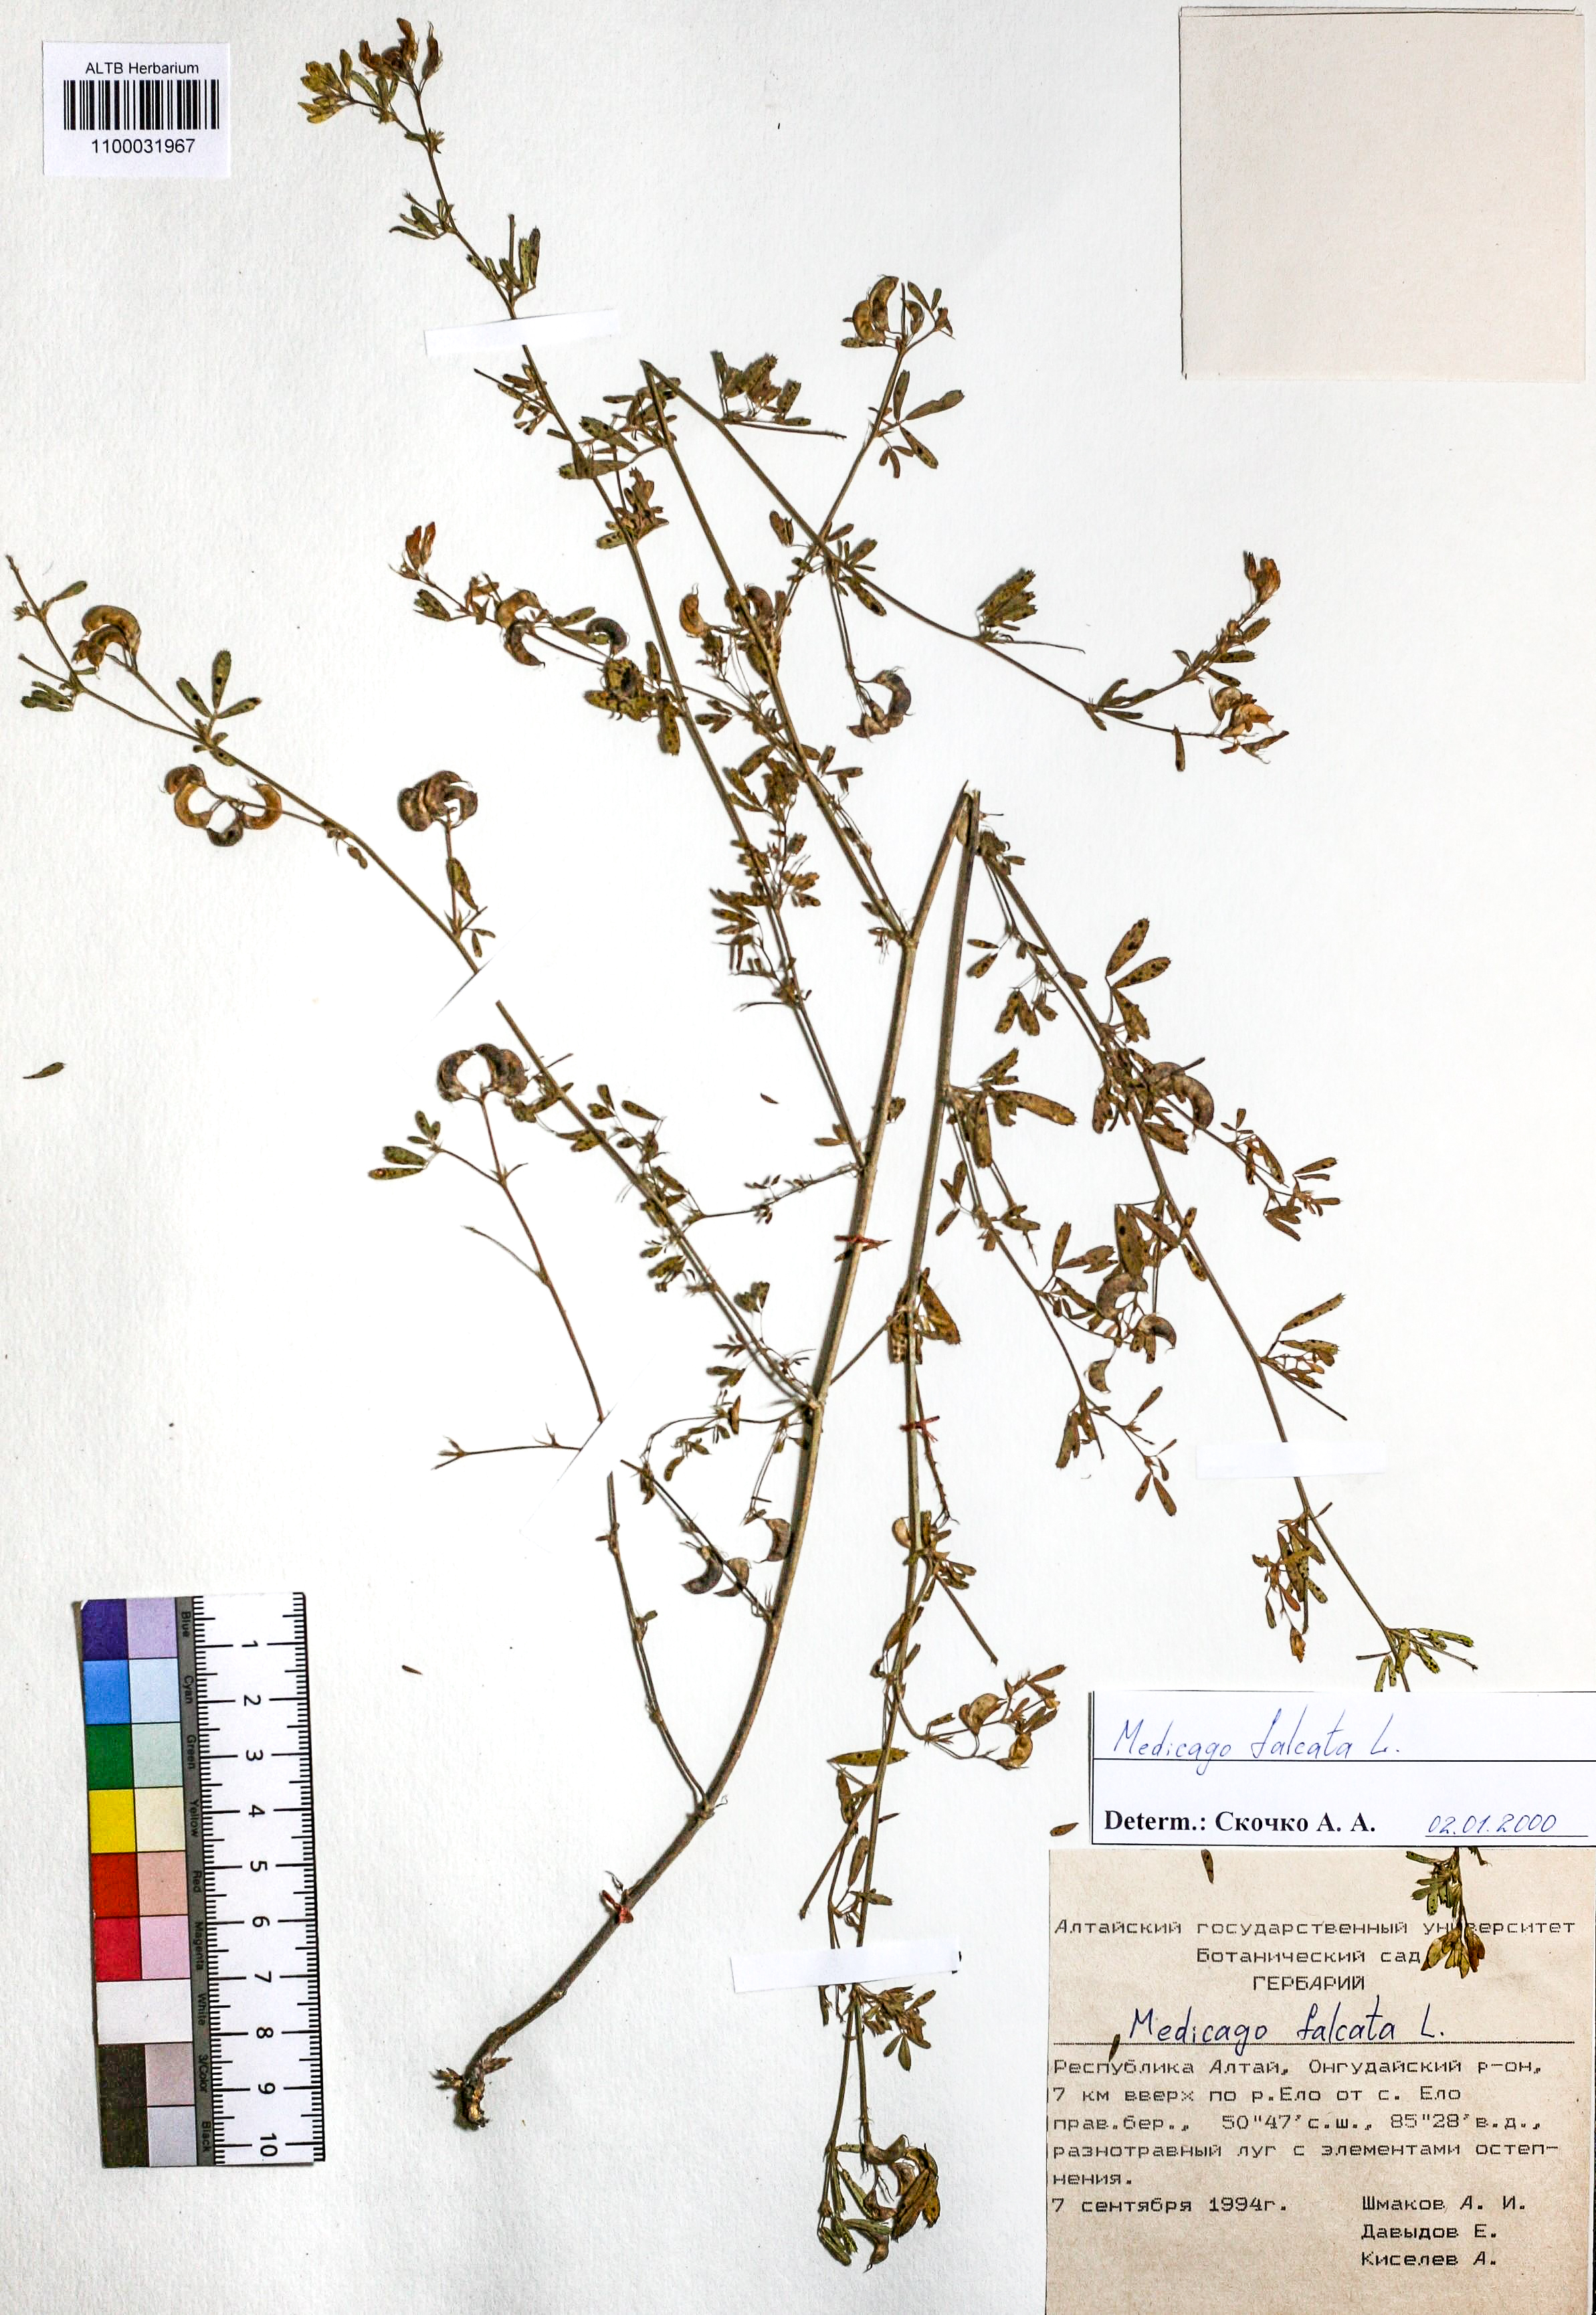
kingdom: Plantae
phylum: Tracheophyta
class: Magnoliopsida
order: Fabales
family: Fabaceae
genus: Medicago
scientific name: Medicago falcata
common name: Sickle medick
